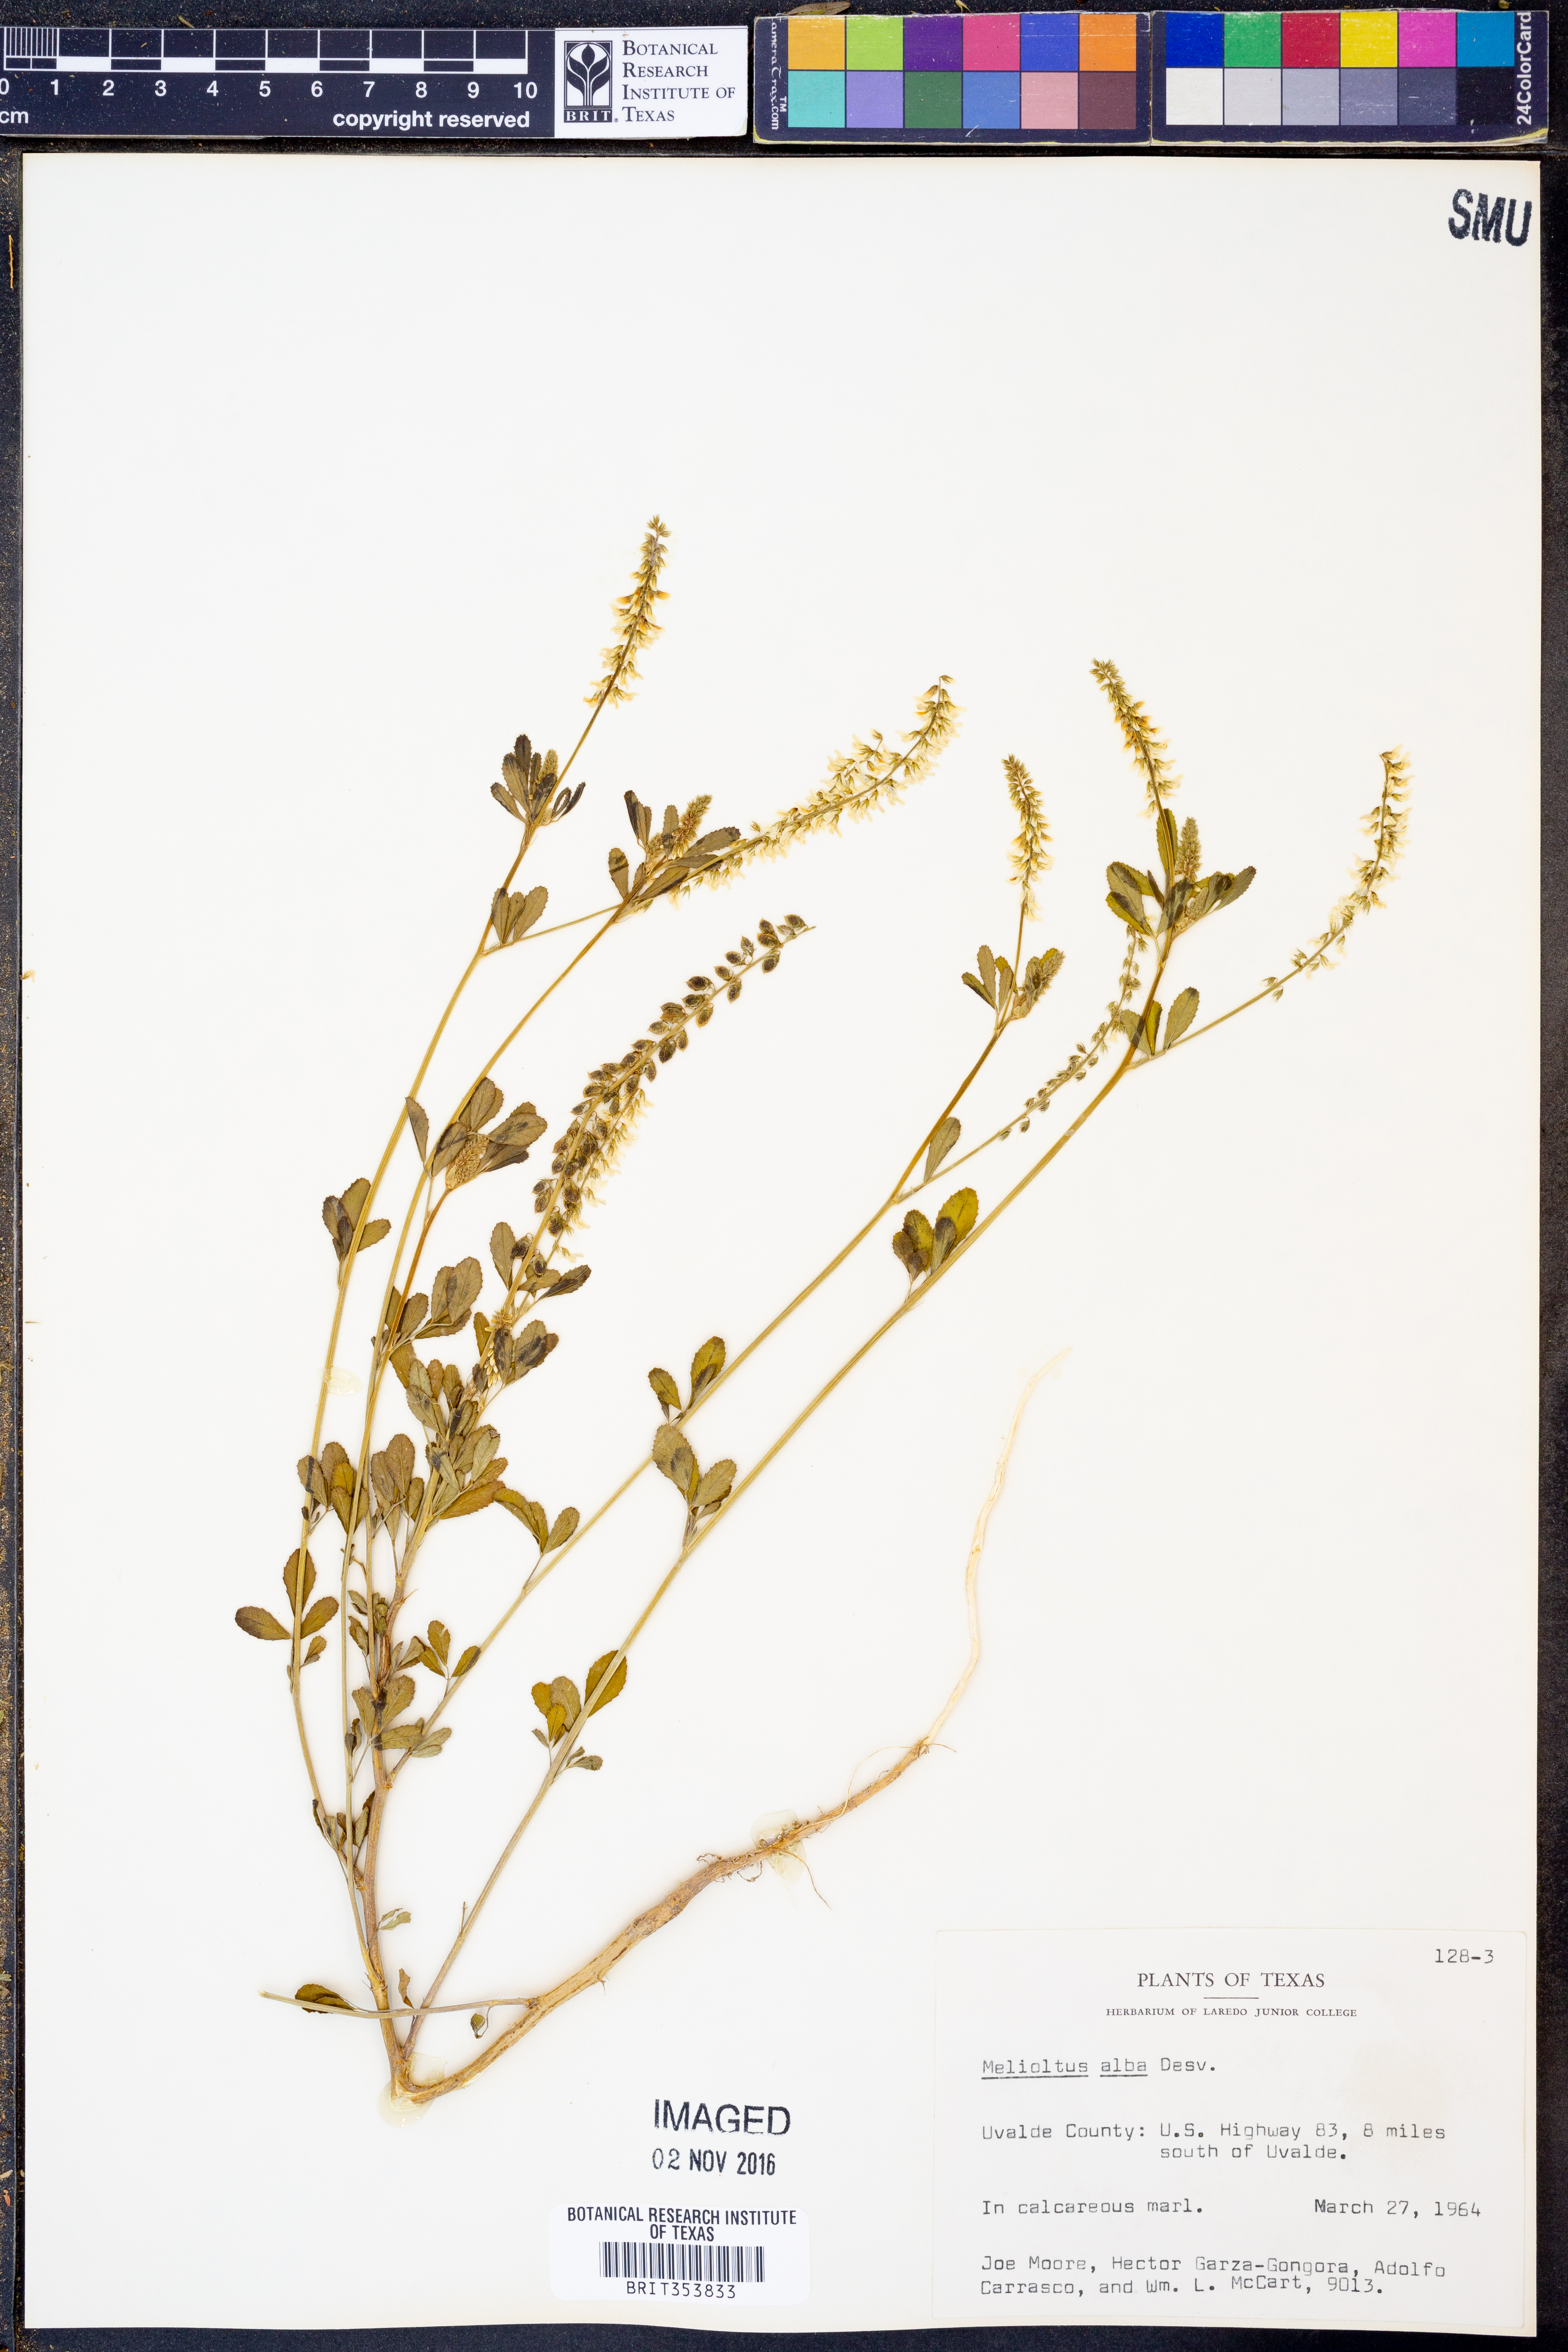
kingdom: Plantae
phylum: Tracheophyta
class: Magnoliopsida
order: Fabales
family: Fabaceae
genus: Melilotus
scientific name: Melilotus albus
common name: White melilot
